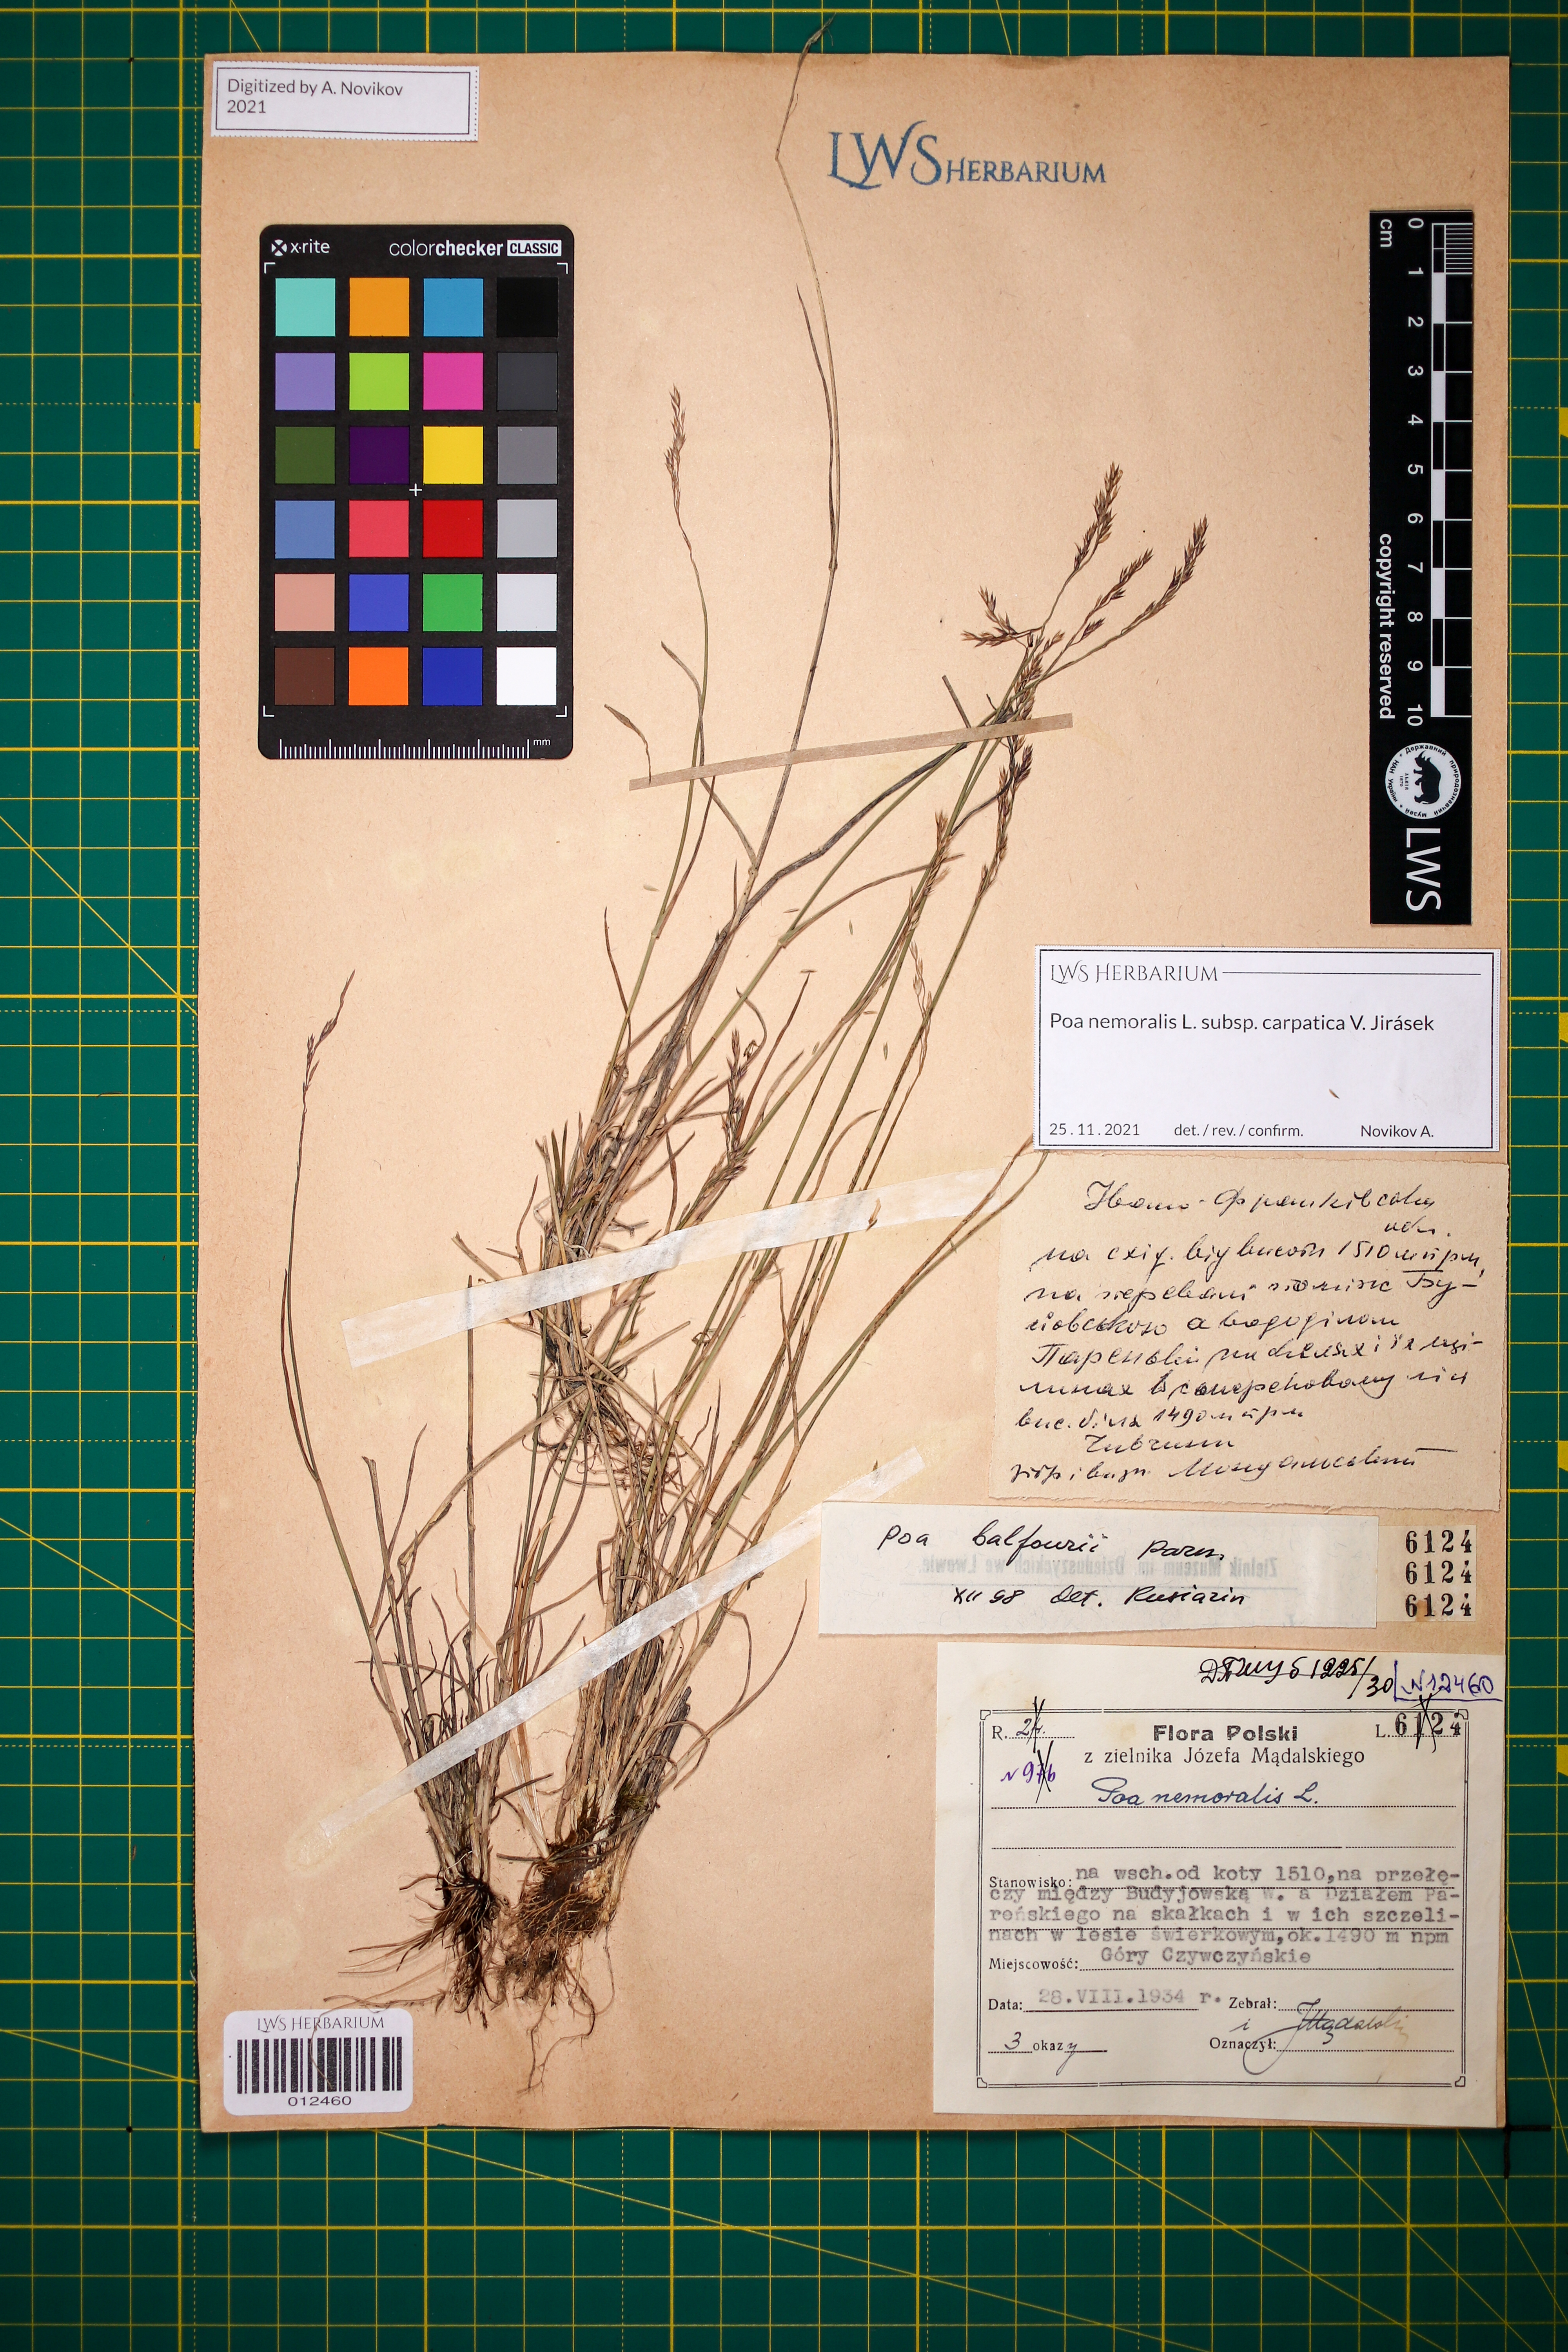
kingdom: Plantae
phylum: Tracheophyta
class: Liliopsida
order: Poales
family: Poaceae
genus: Poa
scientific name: Poa carpatica
